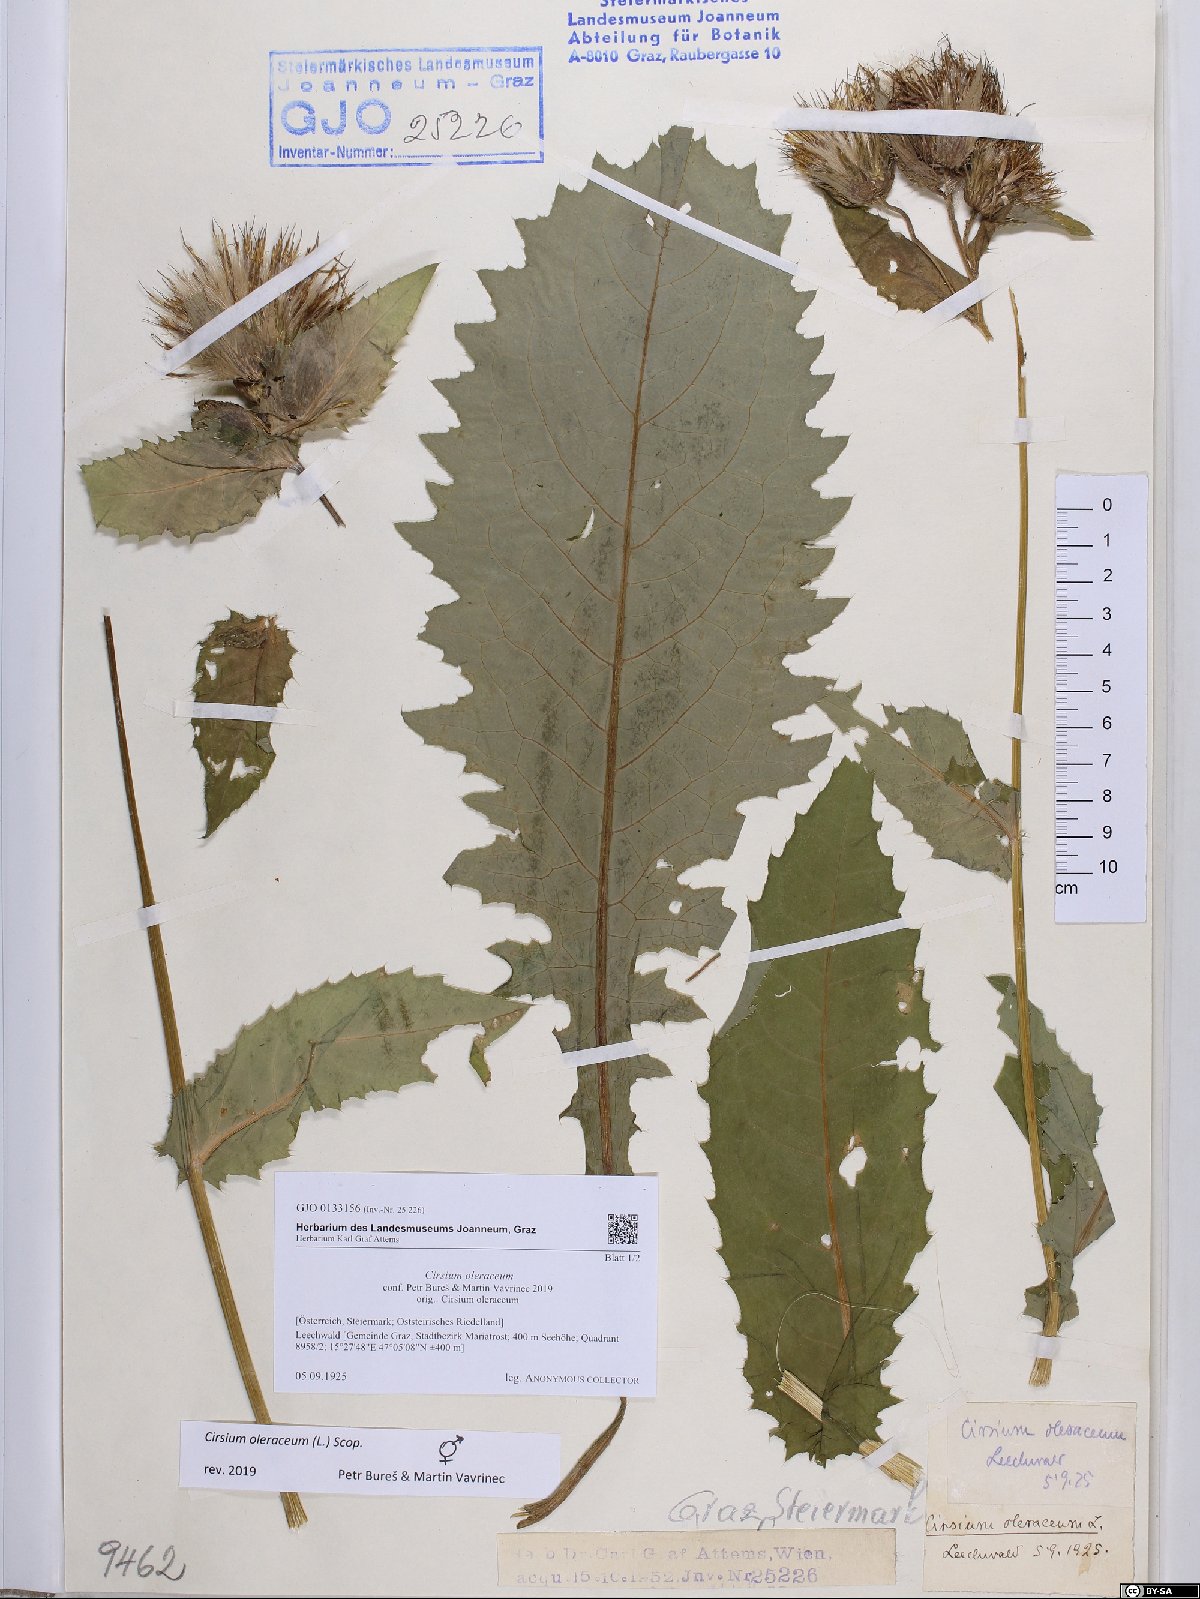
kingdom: Plantae
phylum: Tracheophyta
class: Magnoliopsida
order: Asterales
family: Asteraceae
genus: Cirsium
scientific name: Cirsium oleraceum
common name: Cabbage thistle
